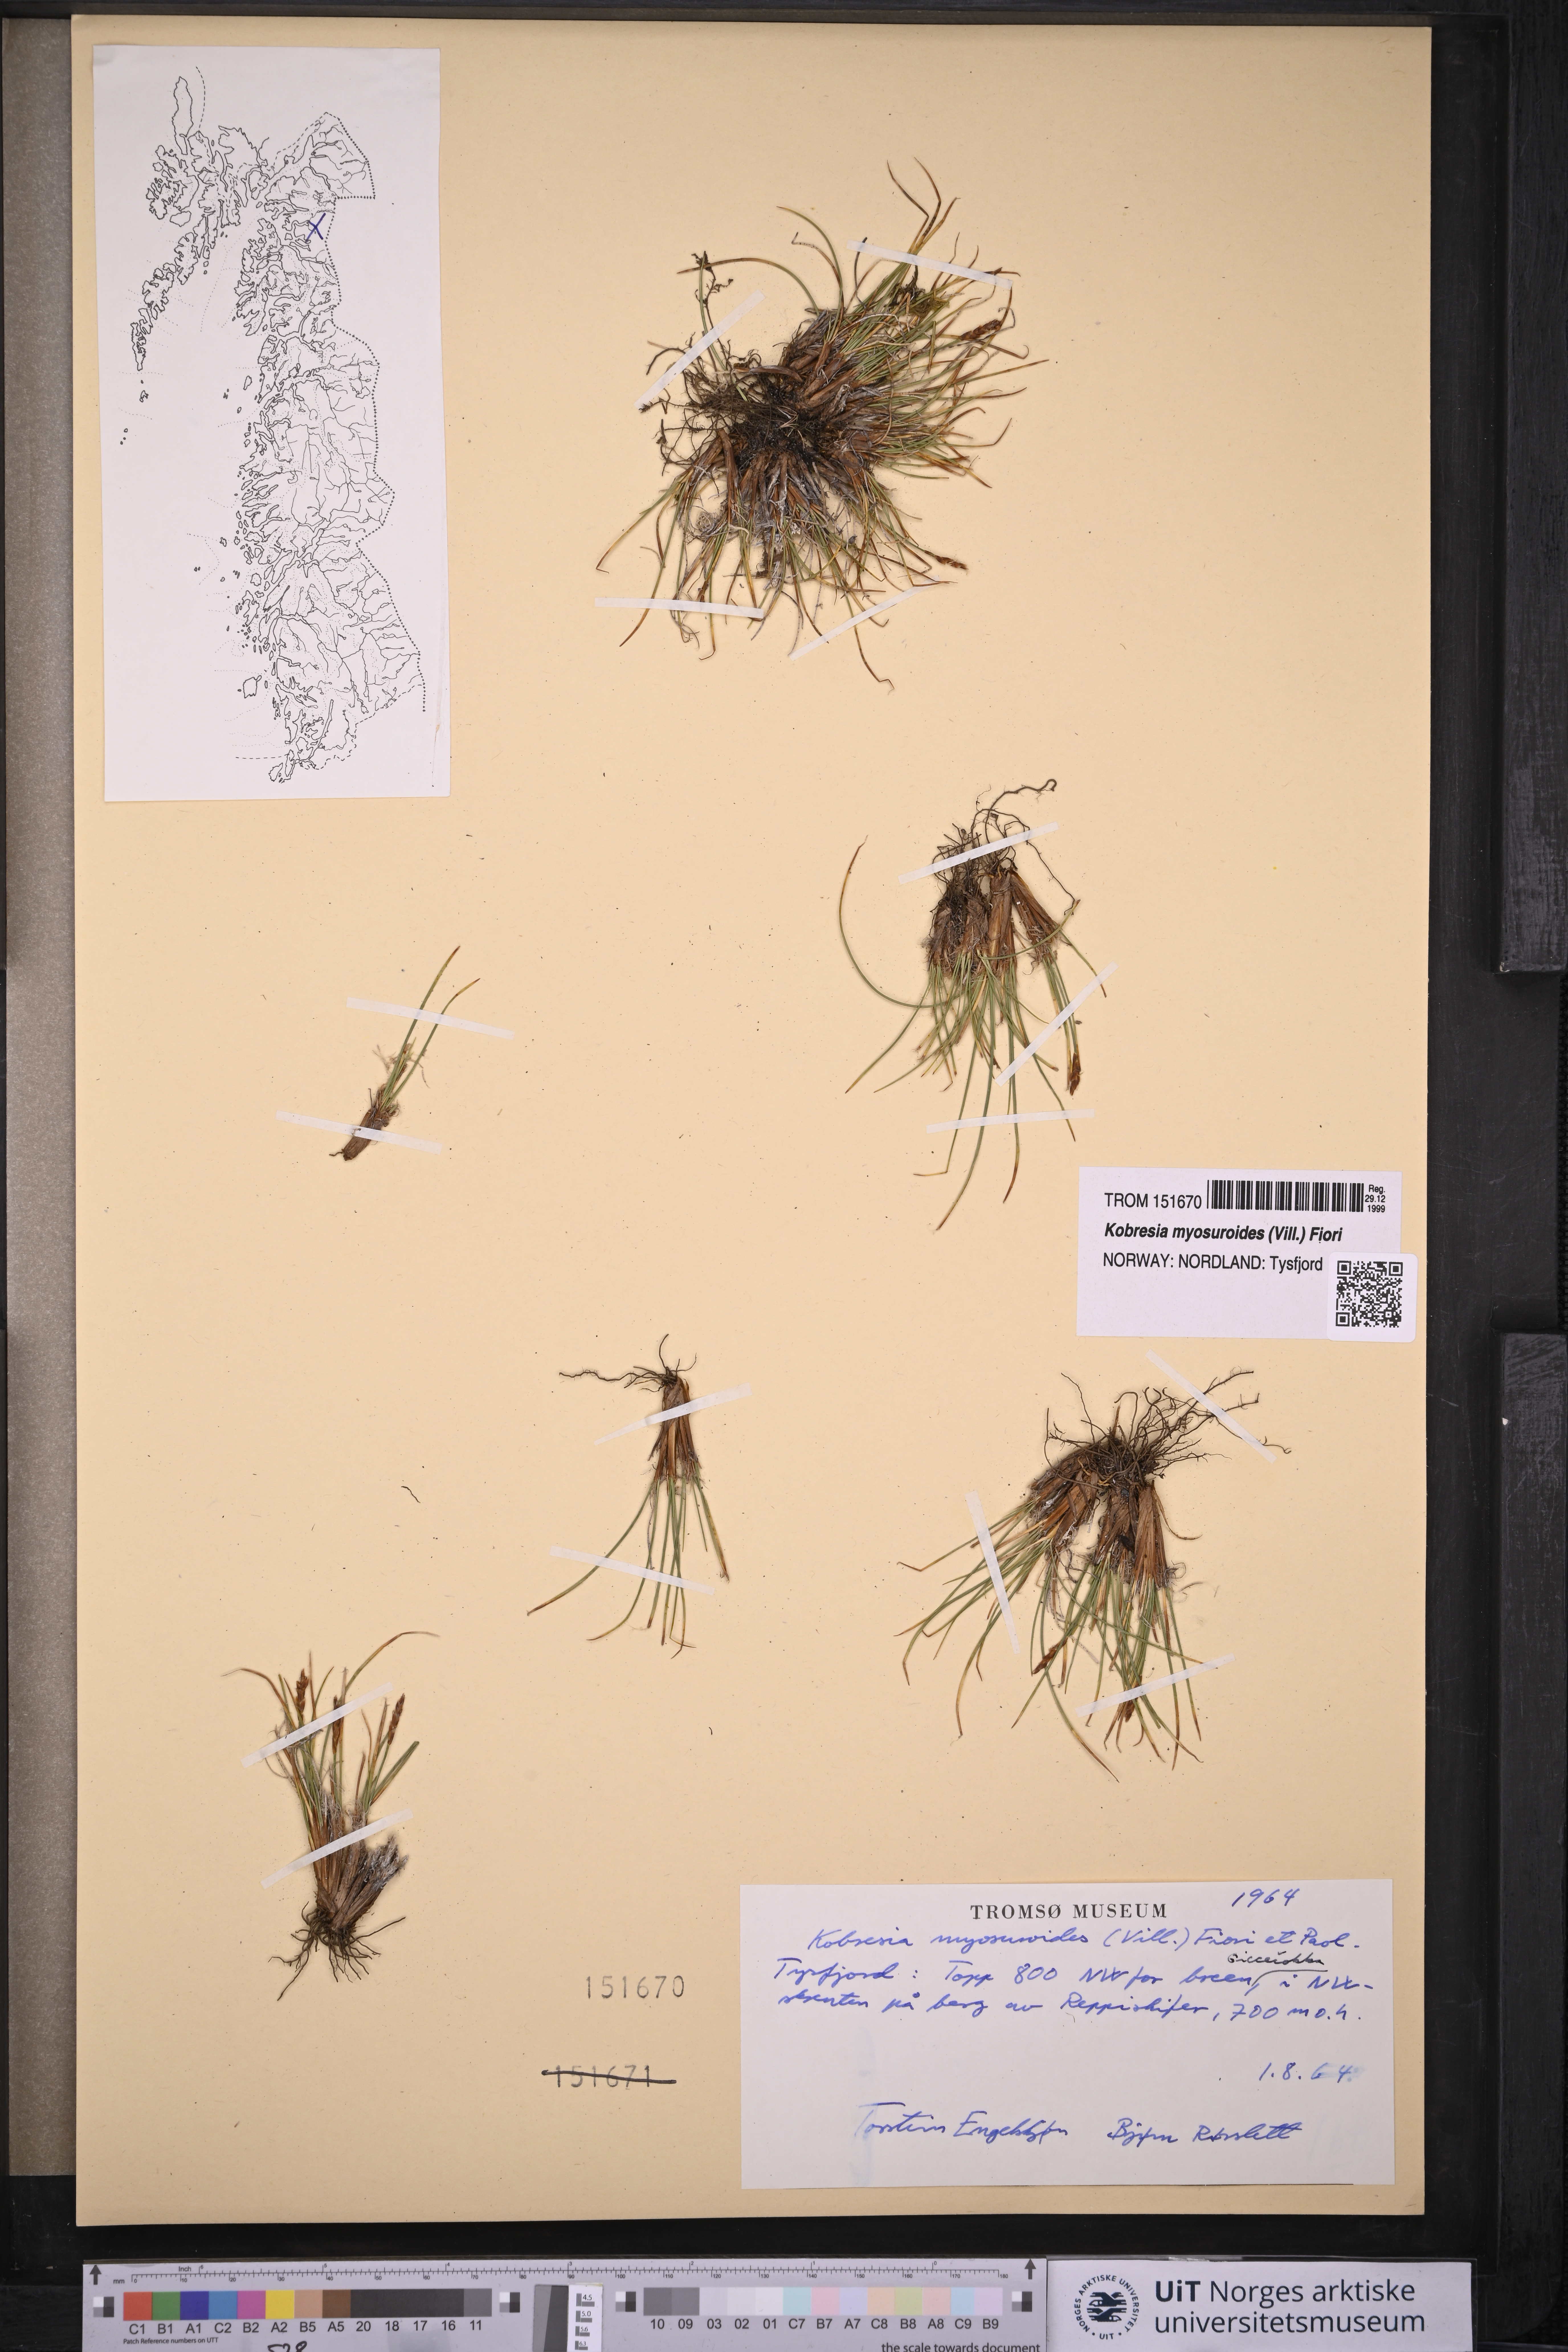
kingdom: Plantae
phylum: Tracheophyta
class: Liliopsida
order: Poales
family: Cyperaceae
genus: Carex
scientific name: Carex myosuroides
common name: Bellard's bog sedge
